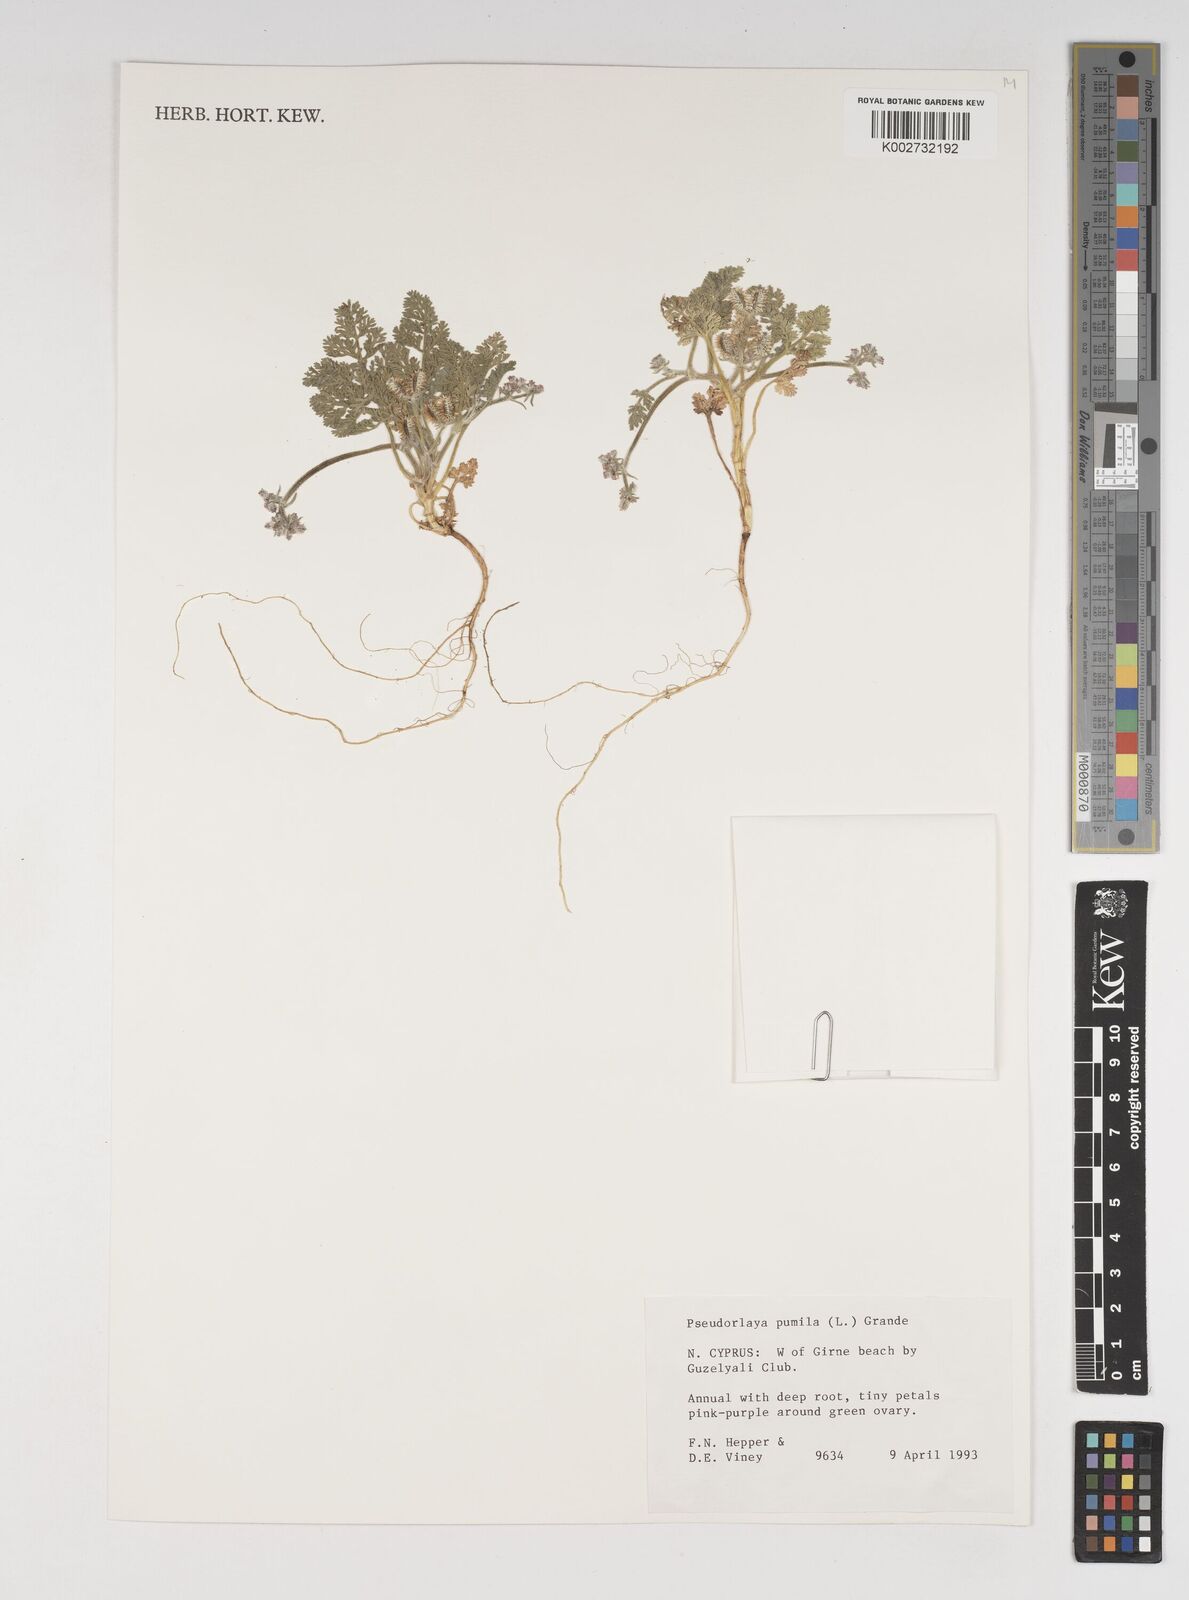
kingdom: Plantae
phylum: Tracheophyta
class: Magnoliopsida
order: Apiales
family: Apiaceae
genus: Daucus
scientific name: Daucus pumilus
